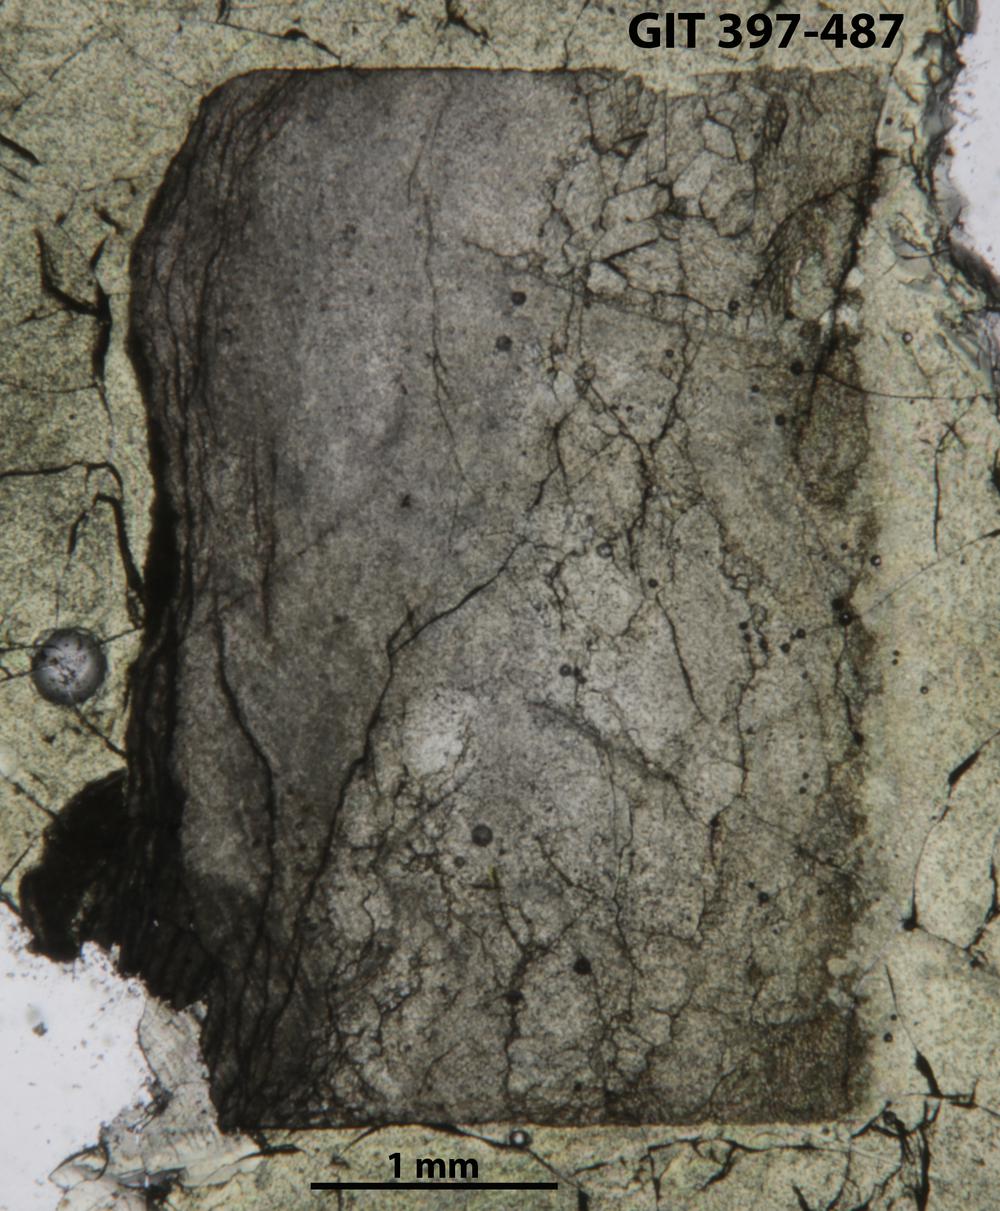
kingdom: Animalia
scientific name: Animalia
